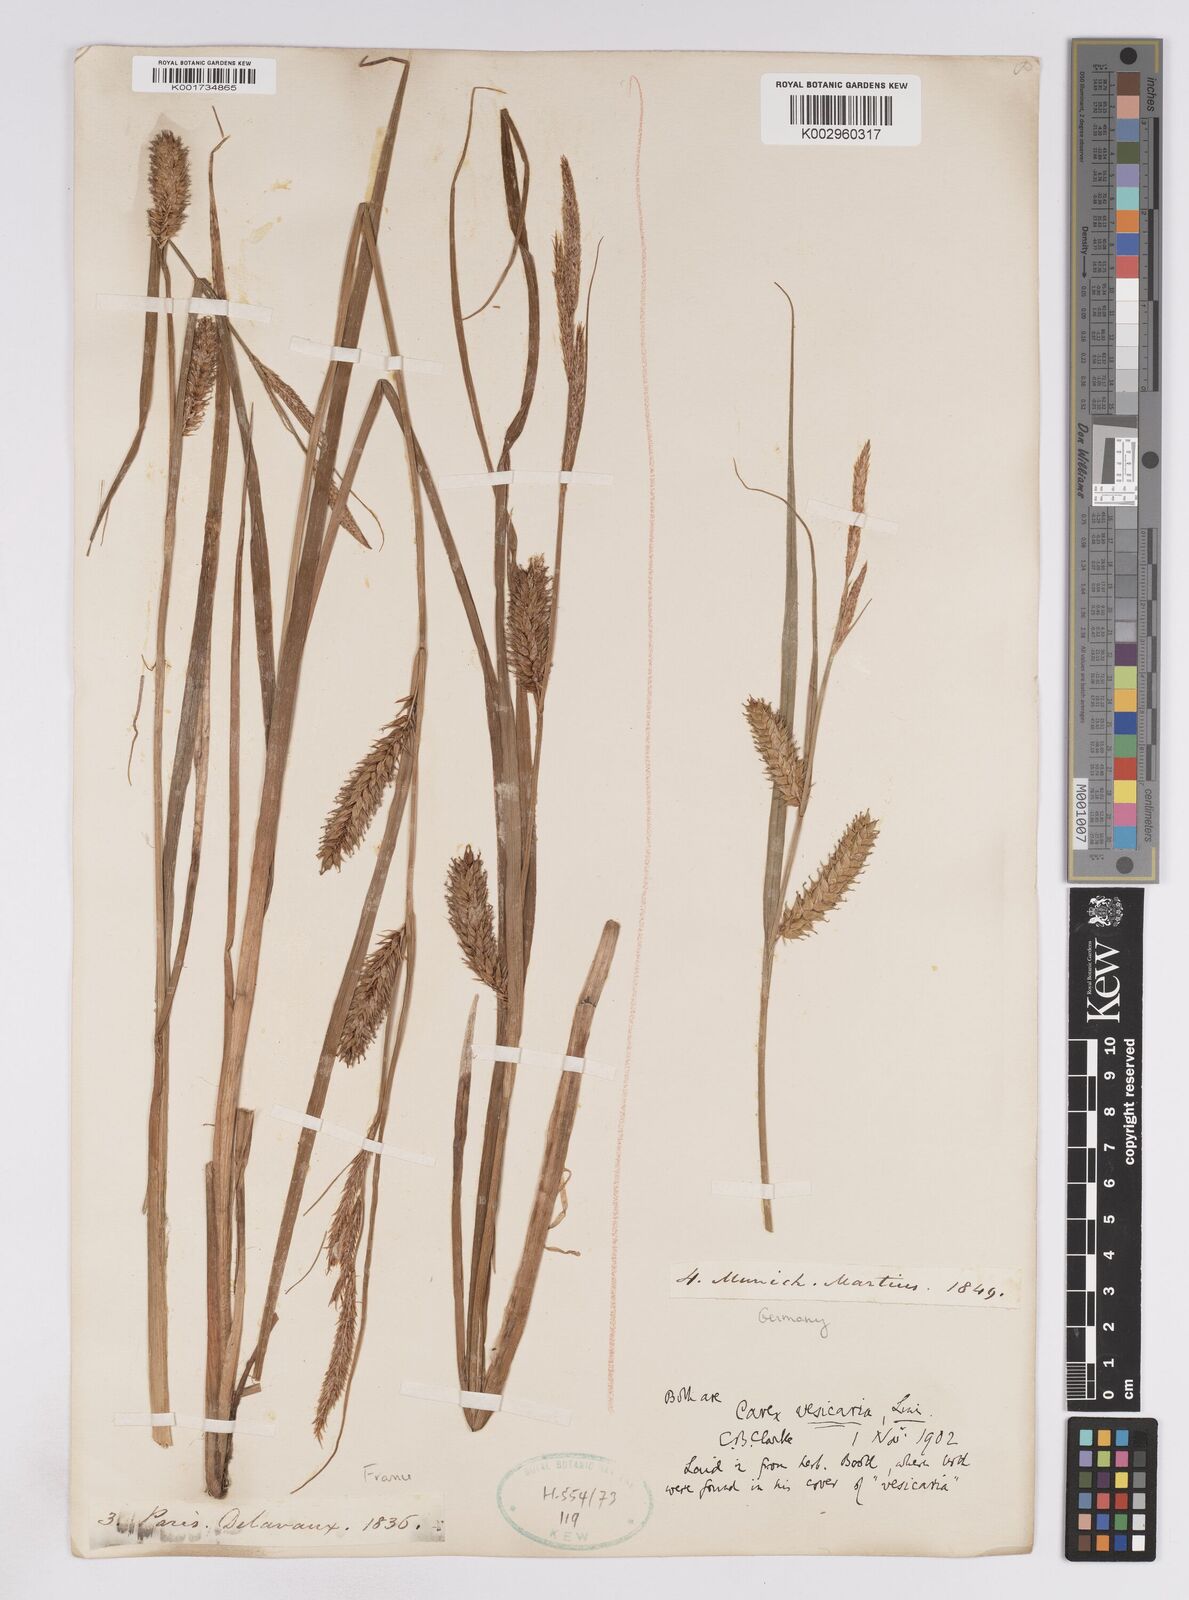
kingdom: Plantae
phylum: Tracheophyta
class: Liliopsida
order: Poales
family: Cyperaceae
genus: Carex
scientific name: Carex vesicaria
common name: Bladder-sedge
